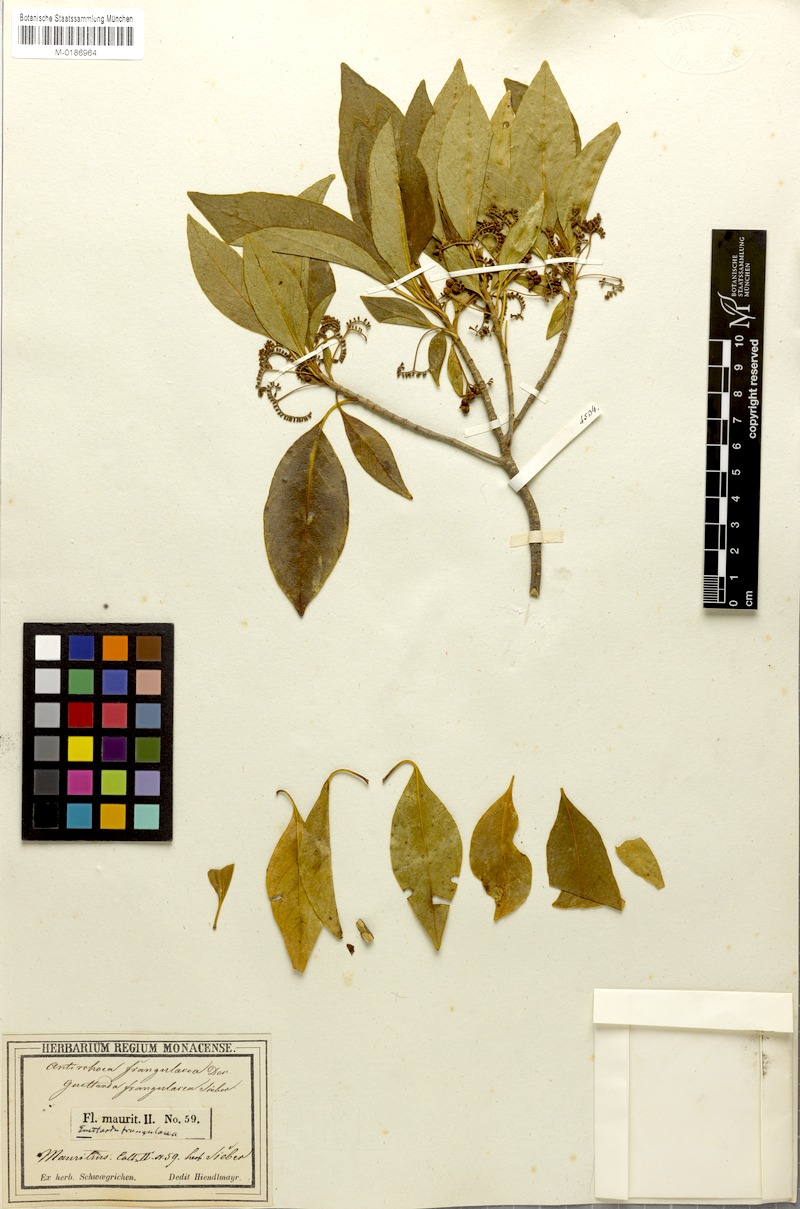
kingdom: Plantae
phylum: Tracheophyta
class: Magnoliopsida
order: Gentianales
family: Rubiaceae
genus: Antirhea
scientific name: Antirhea bifida
